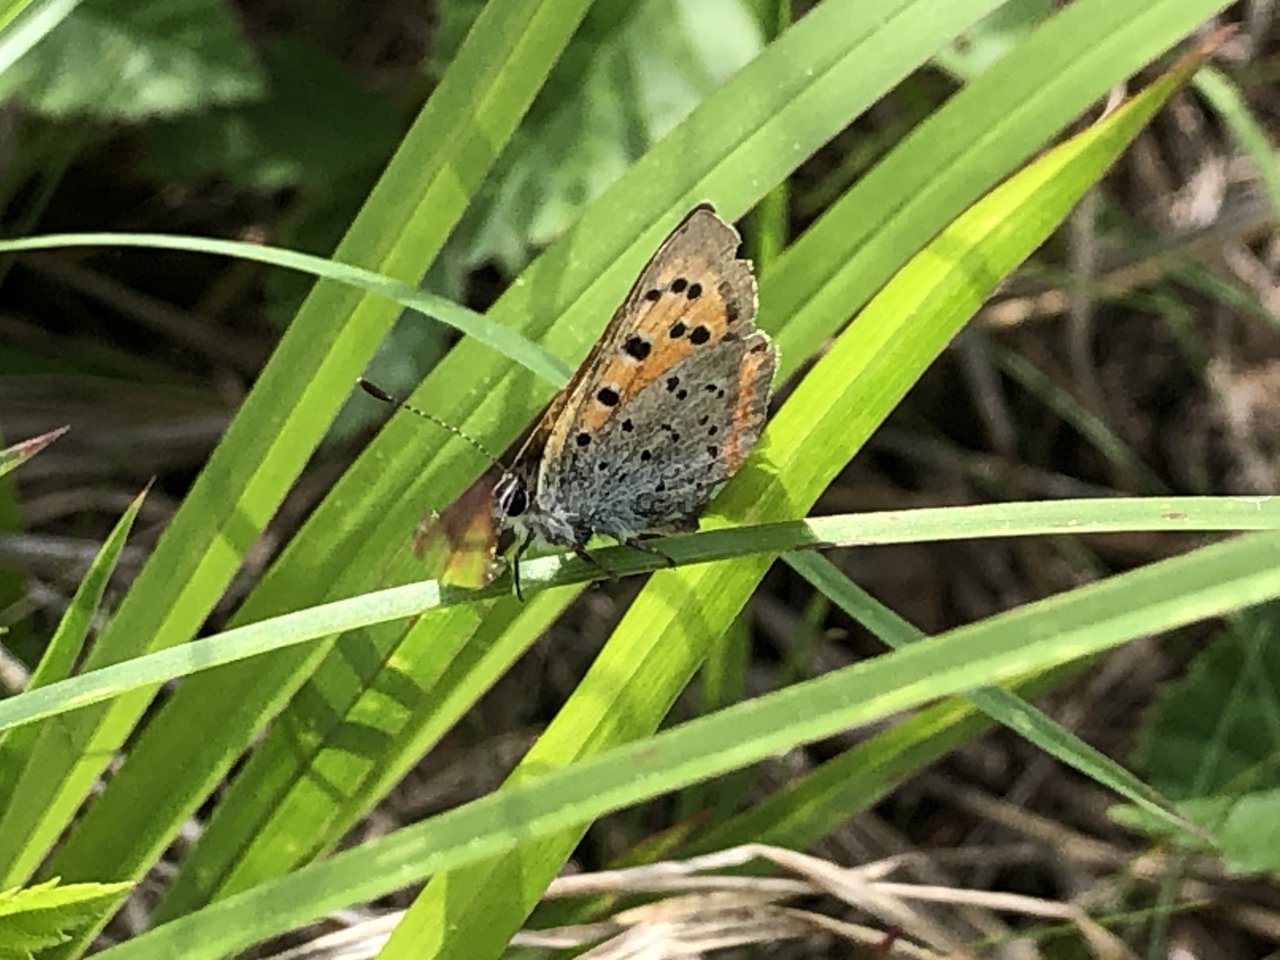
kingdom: Animalia
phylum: Arthropoda
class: Insecta
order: Lepidoptera
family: Lycaenidae
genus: Lycaena
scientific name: Lycaena phlaeas
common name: American Copper
